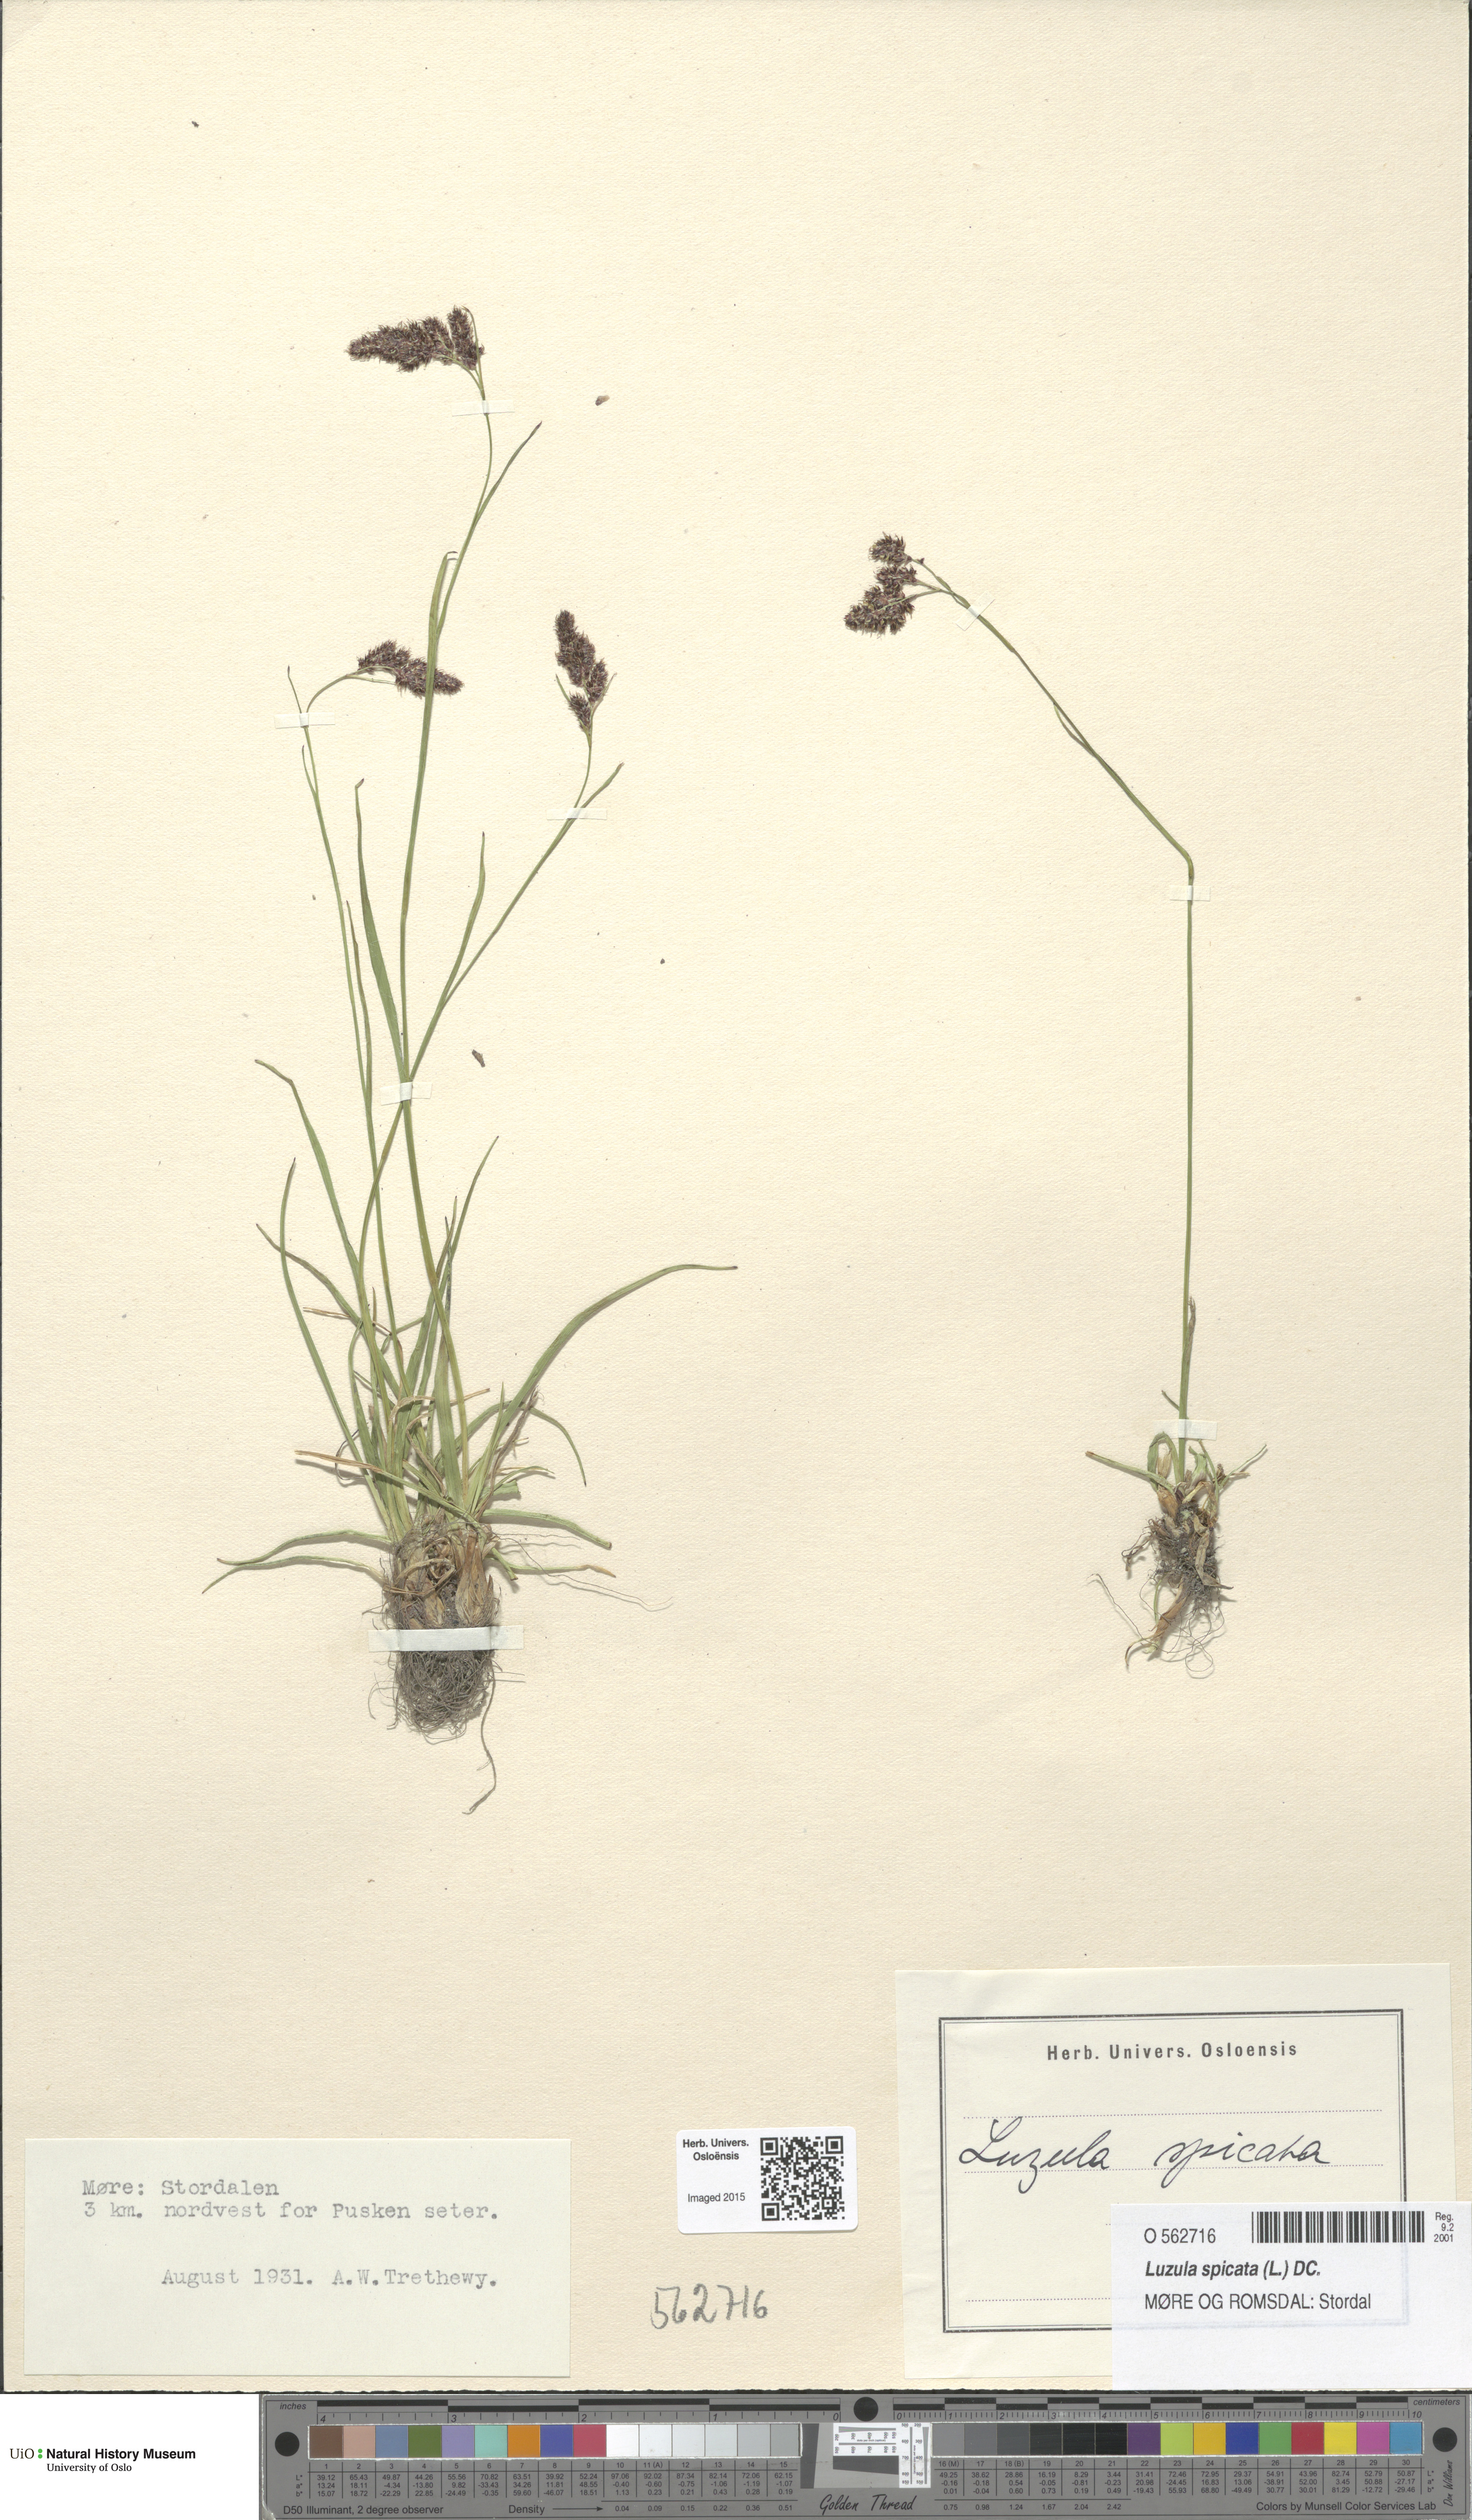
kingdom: Plantae
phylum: Tracheophyta
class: Liliopsida
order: Poales
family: Juncaceae
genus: Luzula
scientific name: Luzula spicata
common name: Spiked wood-rush
